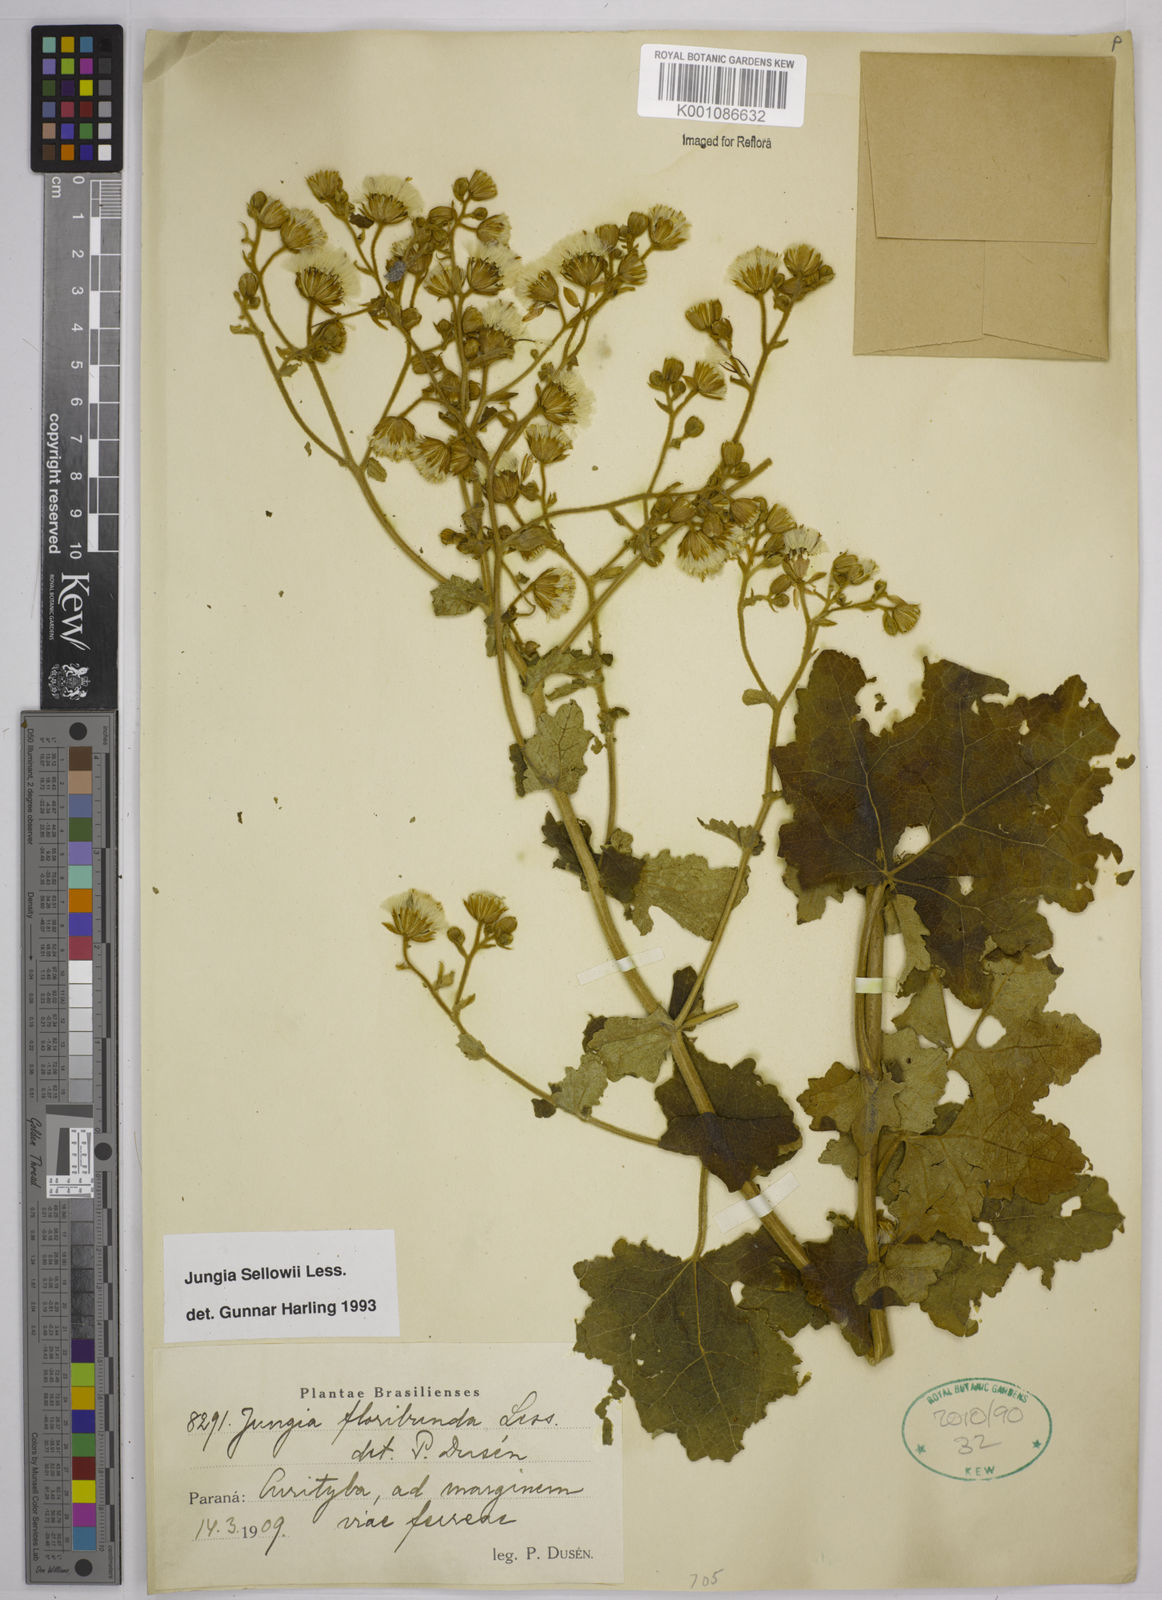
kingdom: Plantae
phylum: Tracheophyta
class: Magnoliopsida
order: Asterales
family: Asteraceae
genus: Jungia
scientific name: Jungia sellowii
